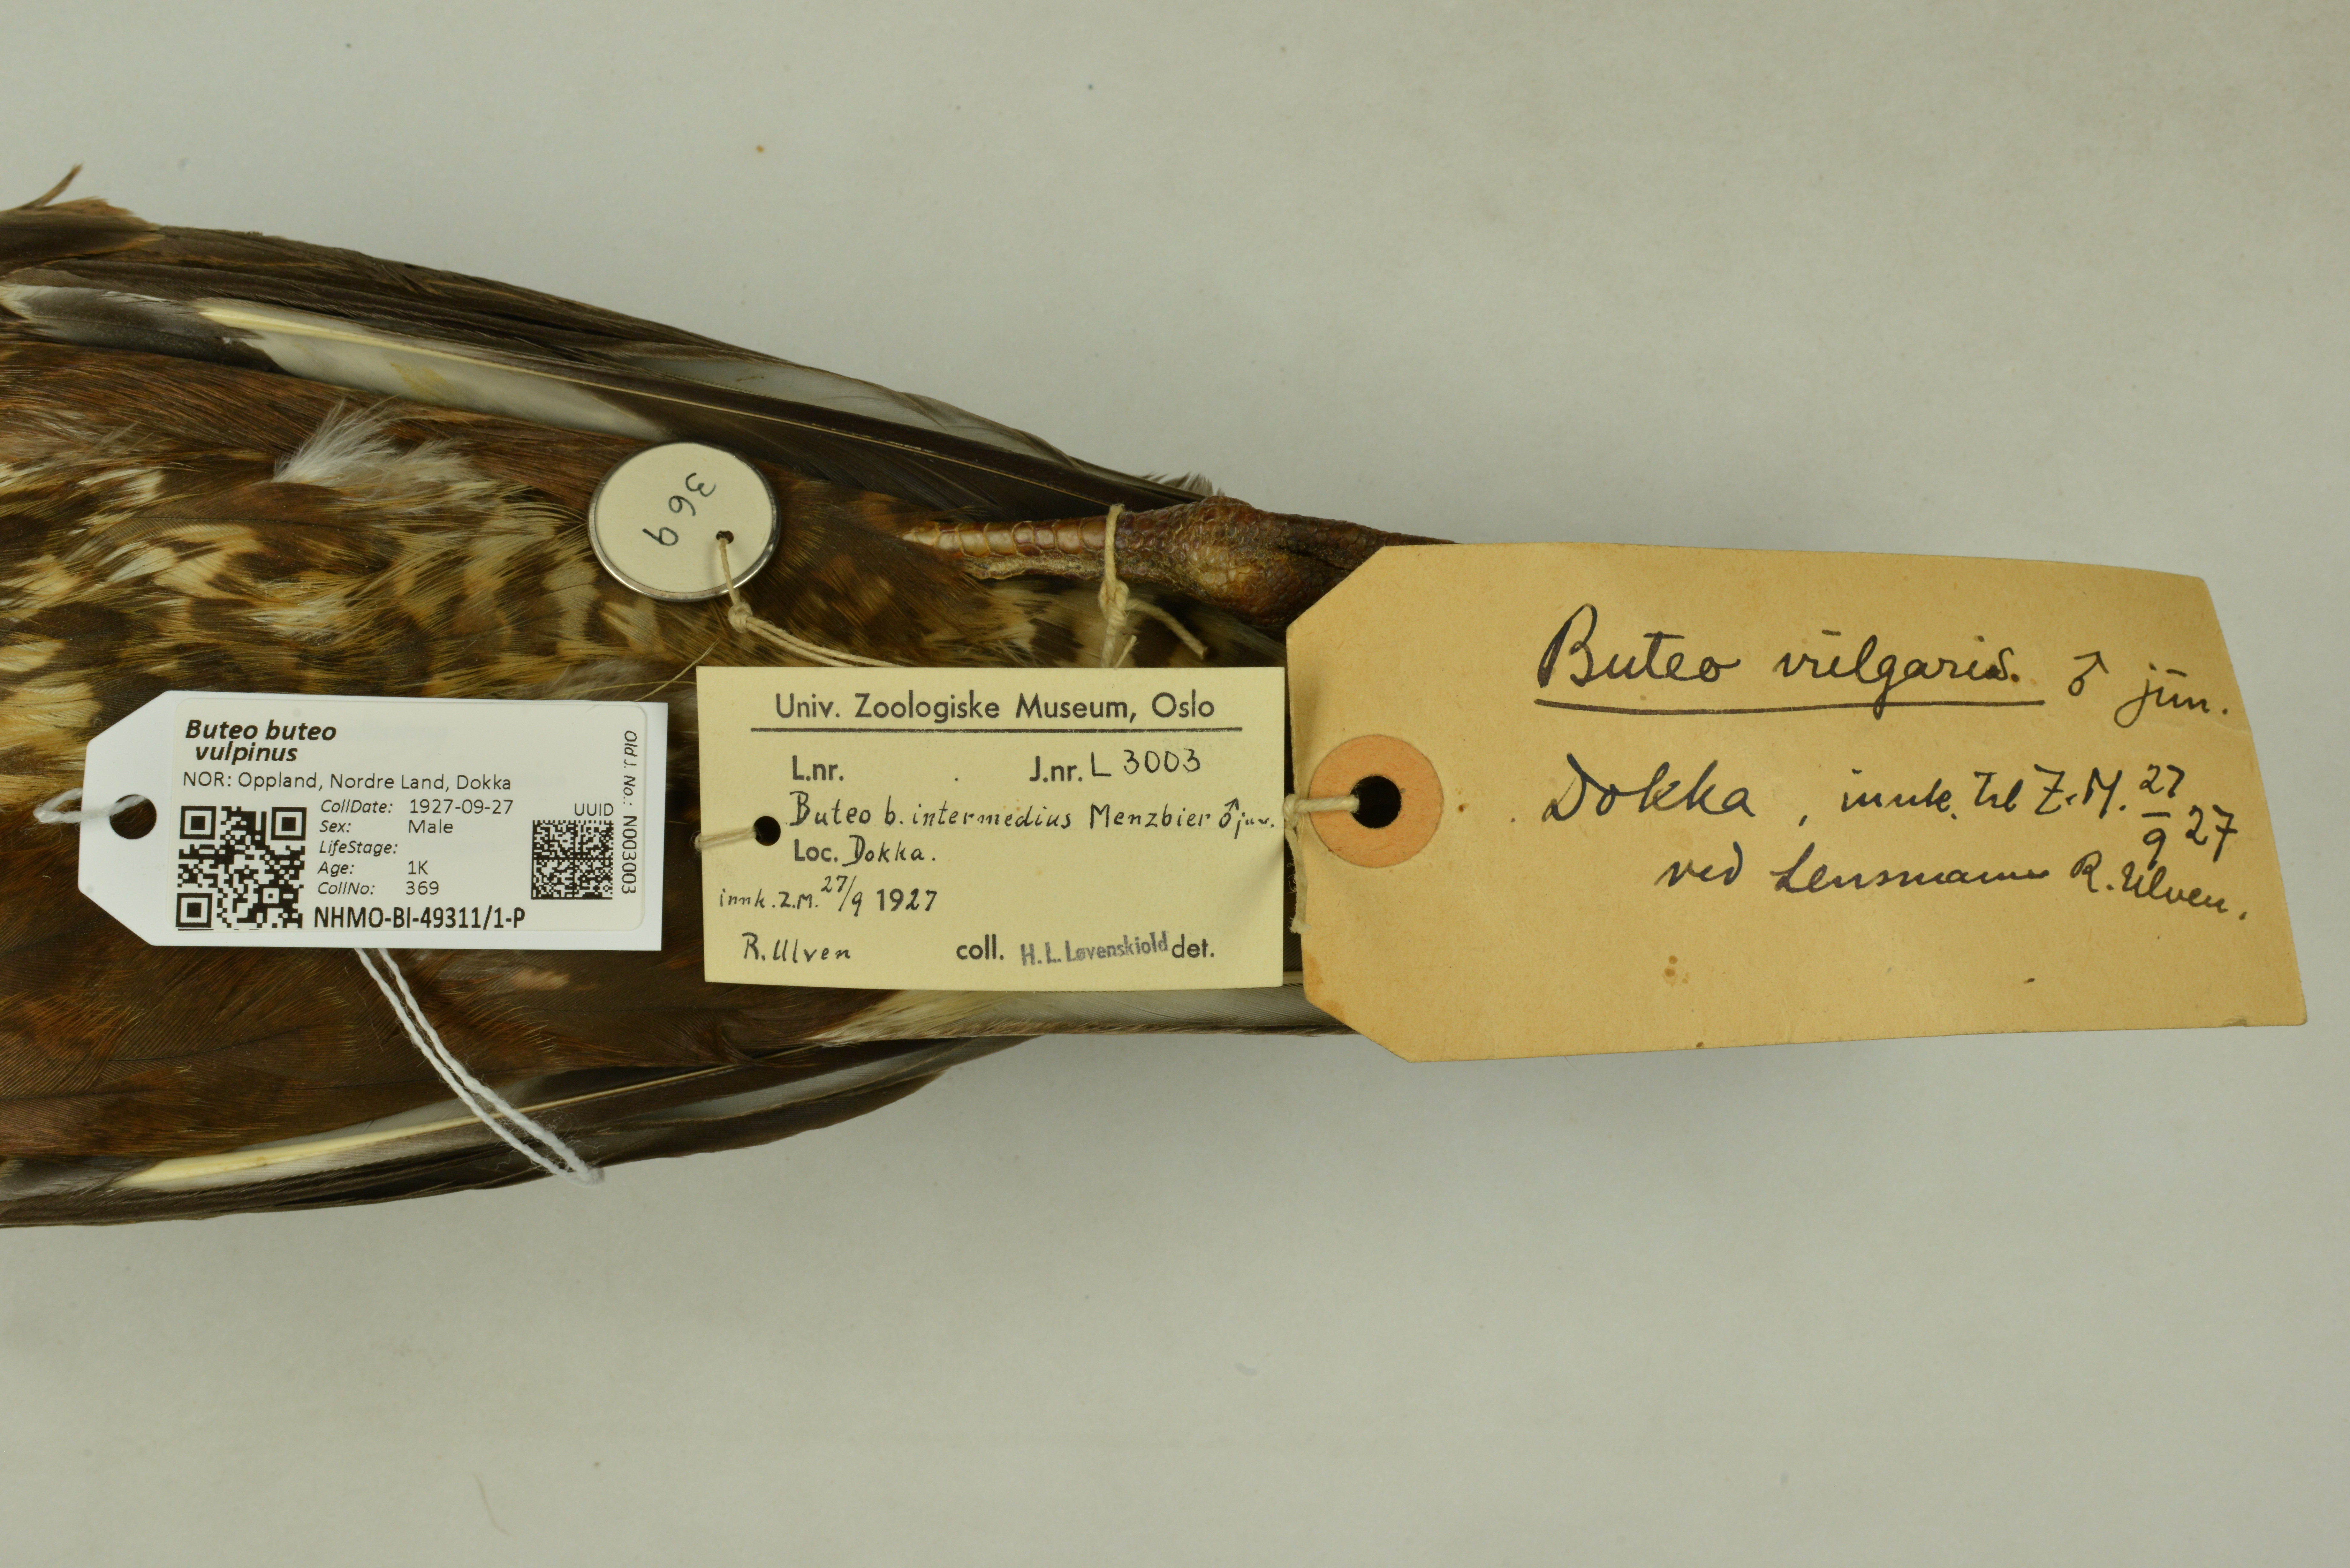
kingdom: Animalia
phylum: Chordata
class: Aves
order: Accipitriformes
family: Accipitridae
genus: Buteo
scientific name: Buteo buteo
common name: Common buzzard
